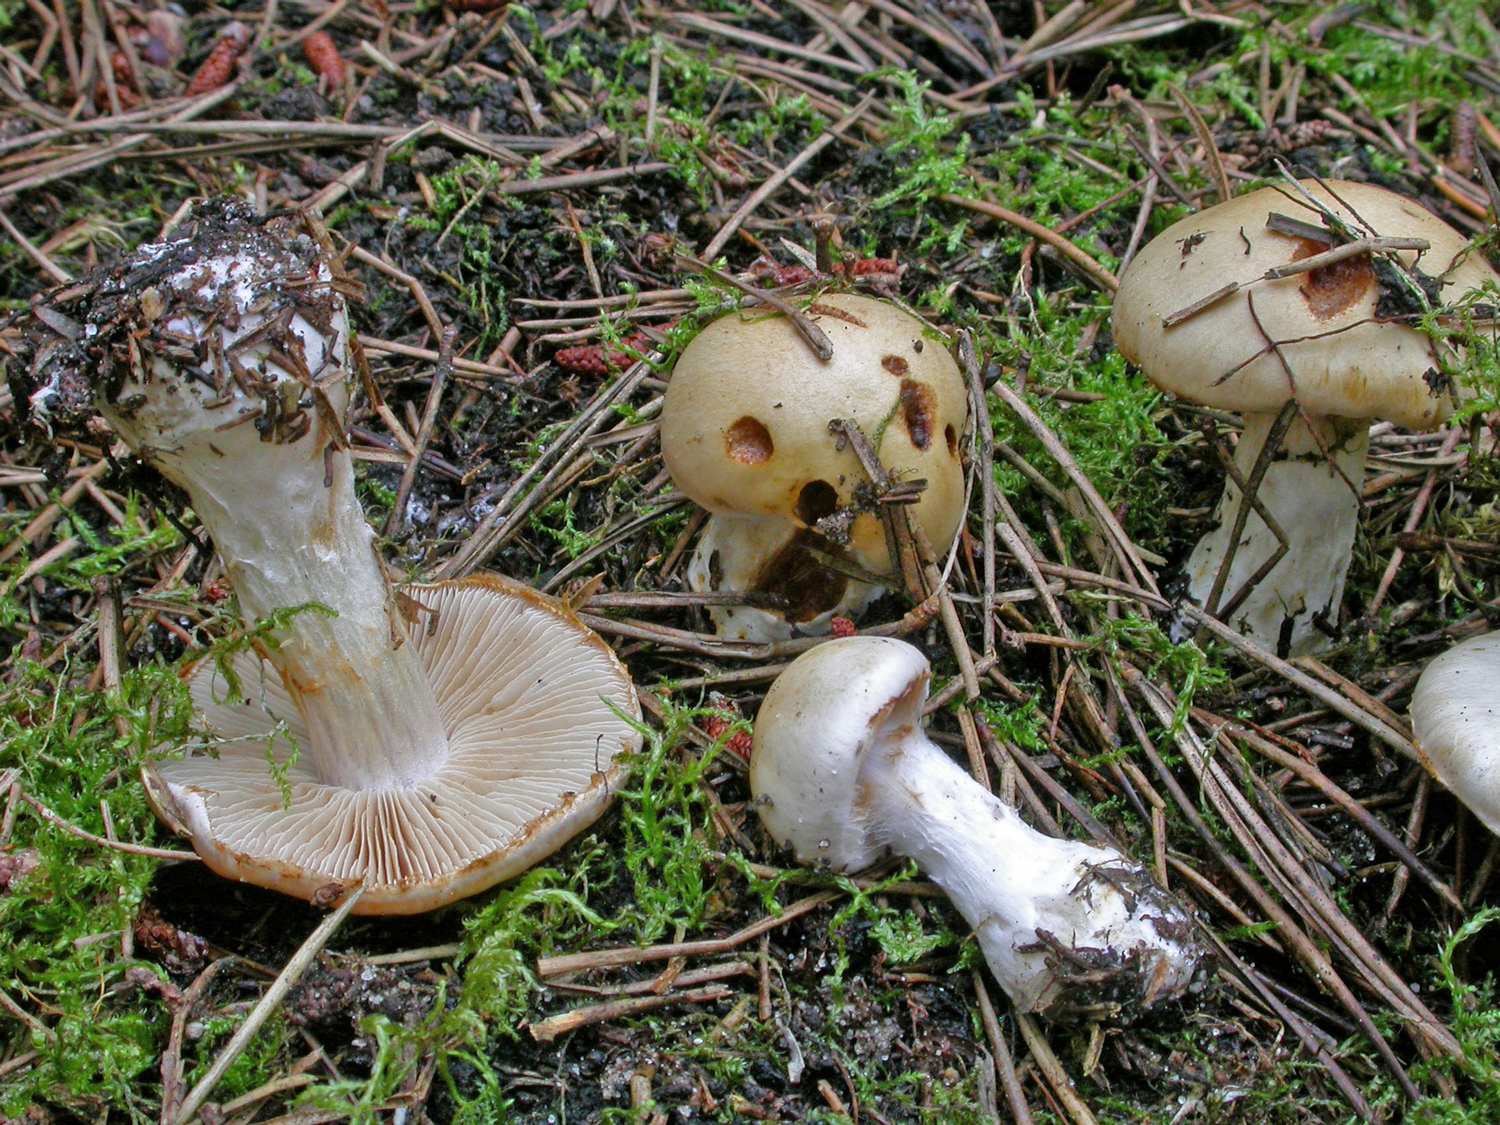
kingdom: Fungi
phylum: Basidiomycota
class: Agaricomycetes
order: Agaricales
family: Cortinariaceae
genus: Thaxterogaster
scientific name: Thaxterogaster leucophanes
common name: fløde-slørhat
